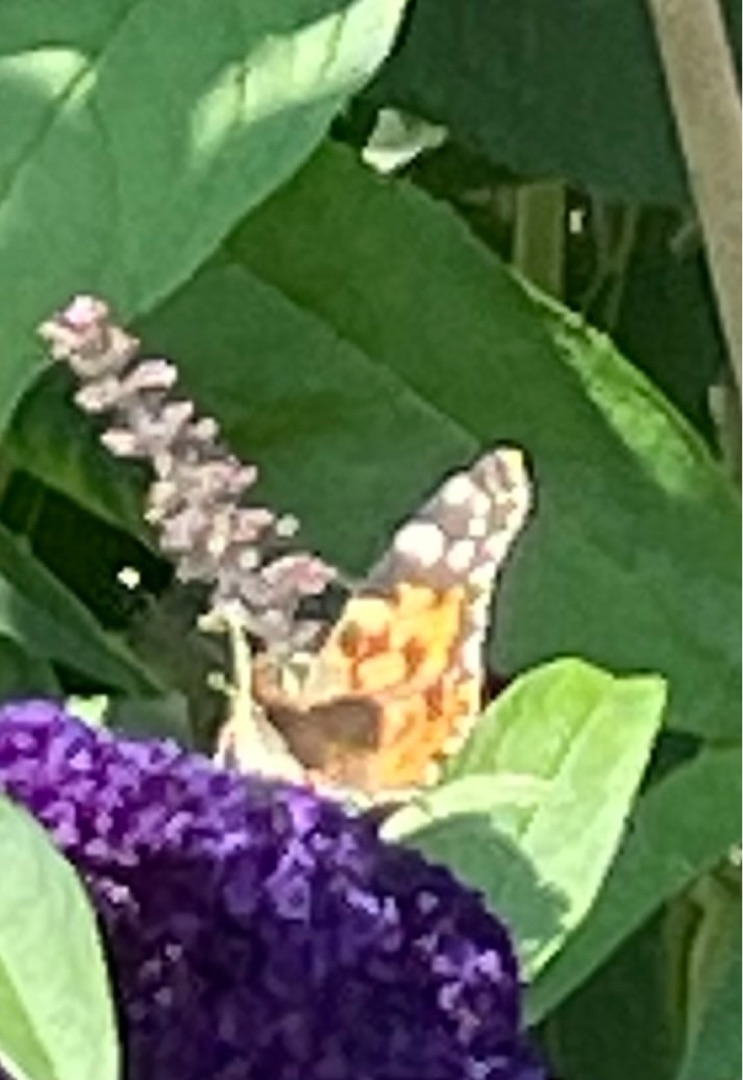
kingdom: Animalia
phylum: Arthropoda
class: Insecta
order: Lepidoptera
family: Nymphalidae
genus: Vanessa
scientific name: Vanessa cardui
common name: Tidselsommerfugl
